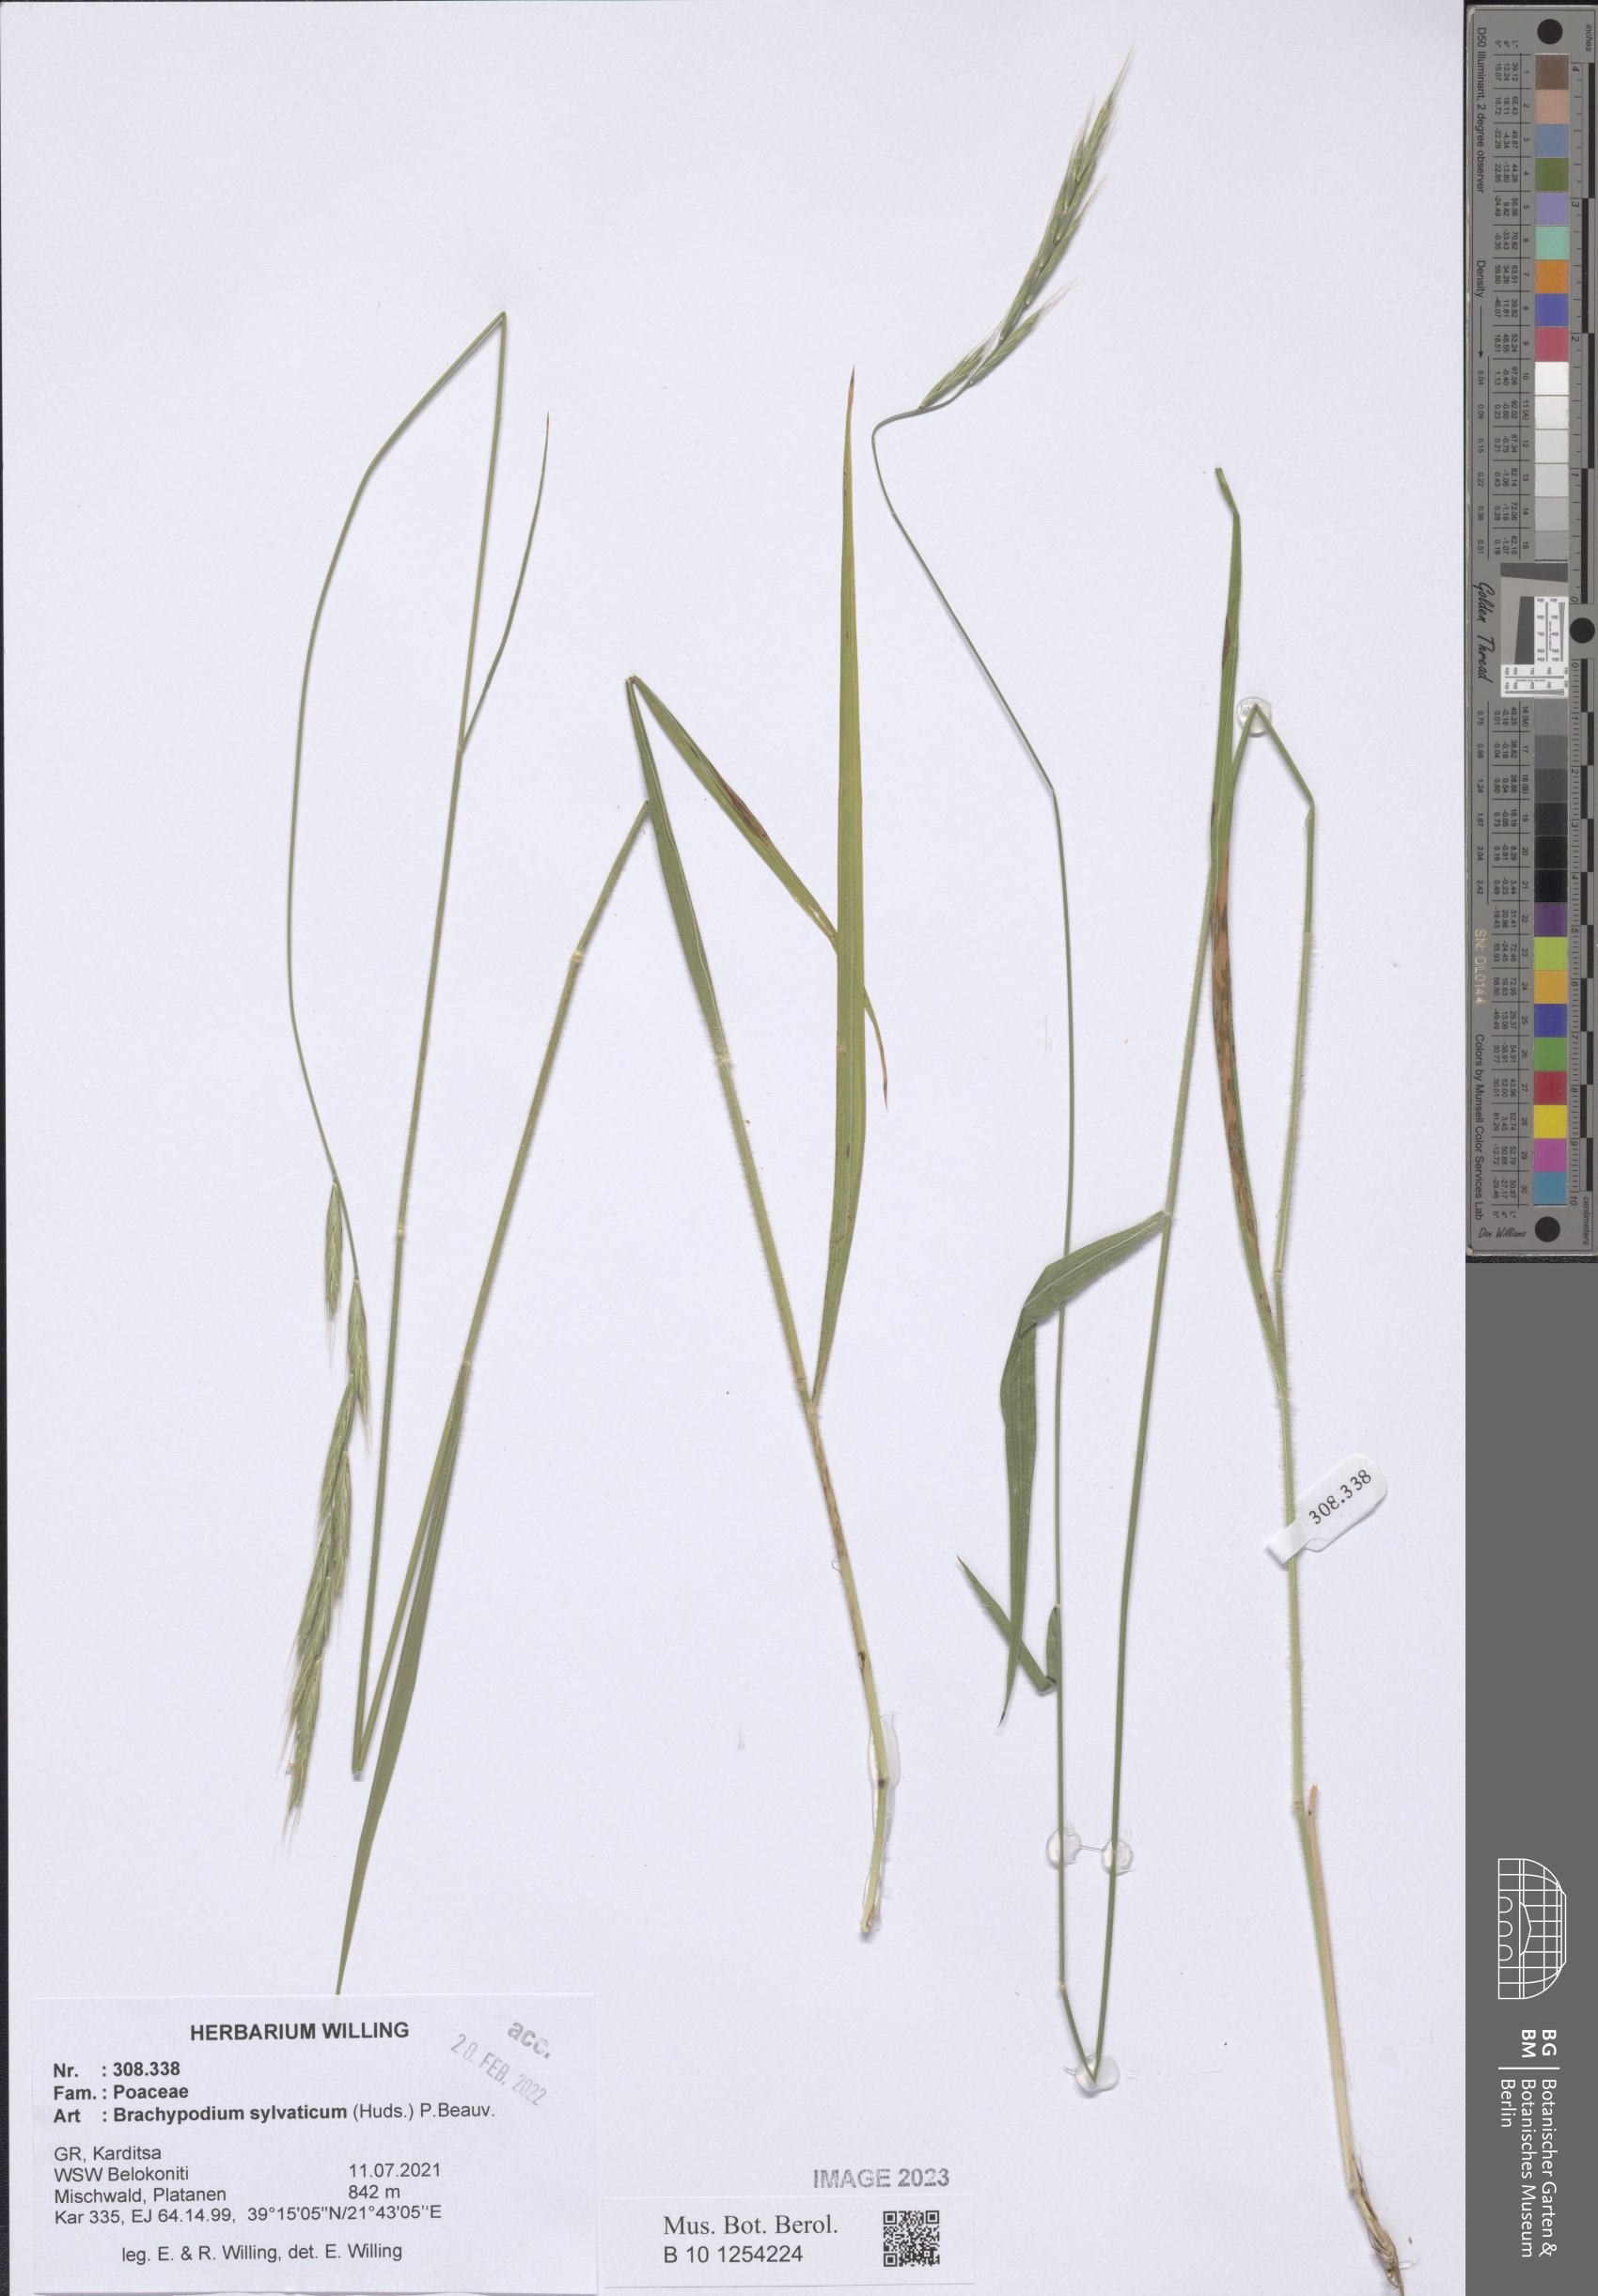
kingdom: Plantae
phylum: Tracheophyta
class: Liliopsida
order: Poales
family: Poaceae
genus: Brachypodium
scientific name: Brachypodium sylvaticum
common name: False-brome
